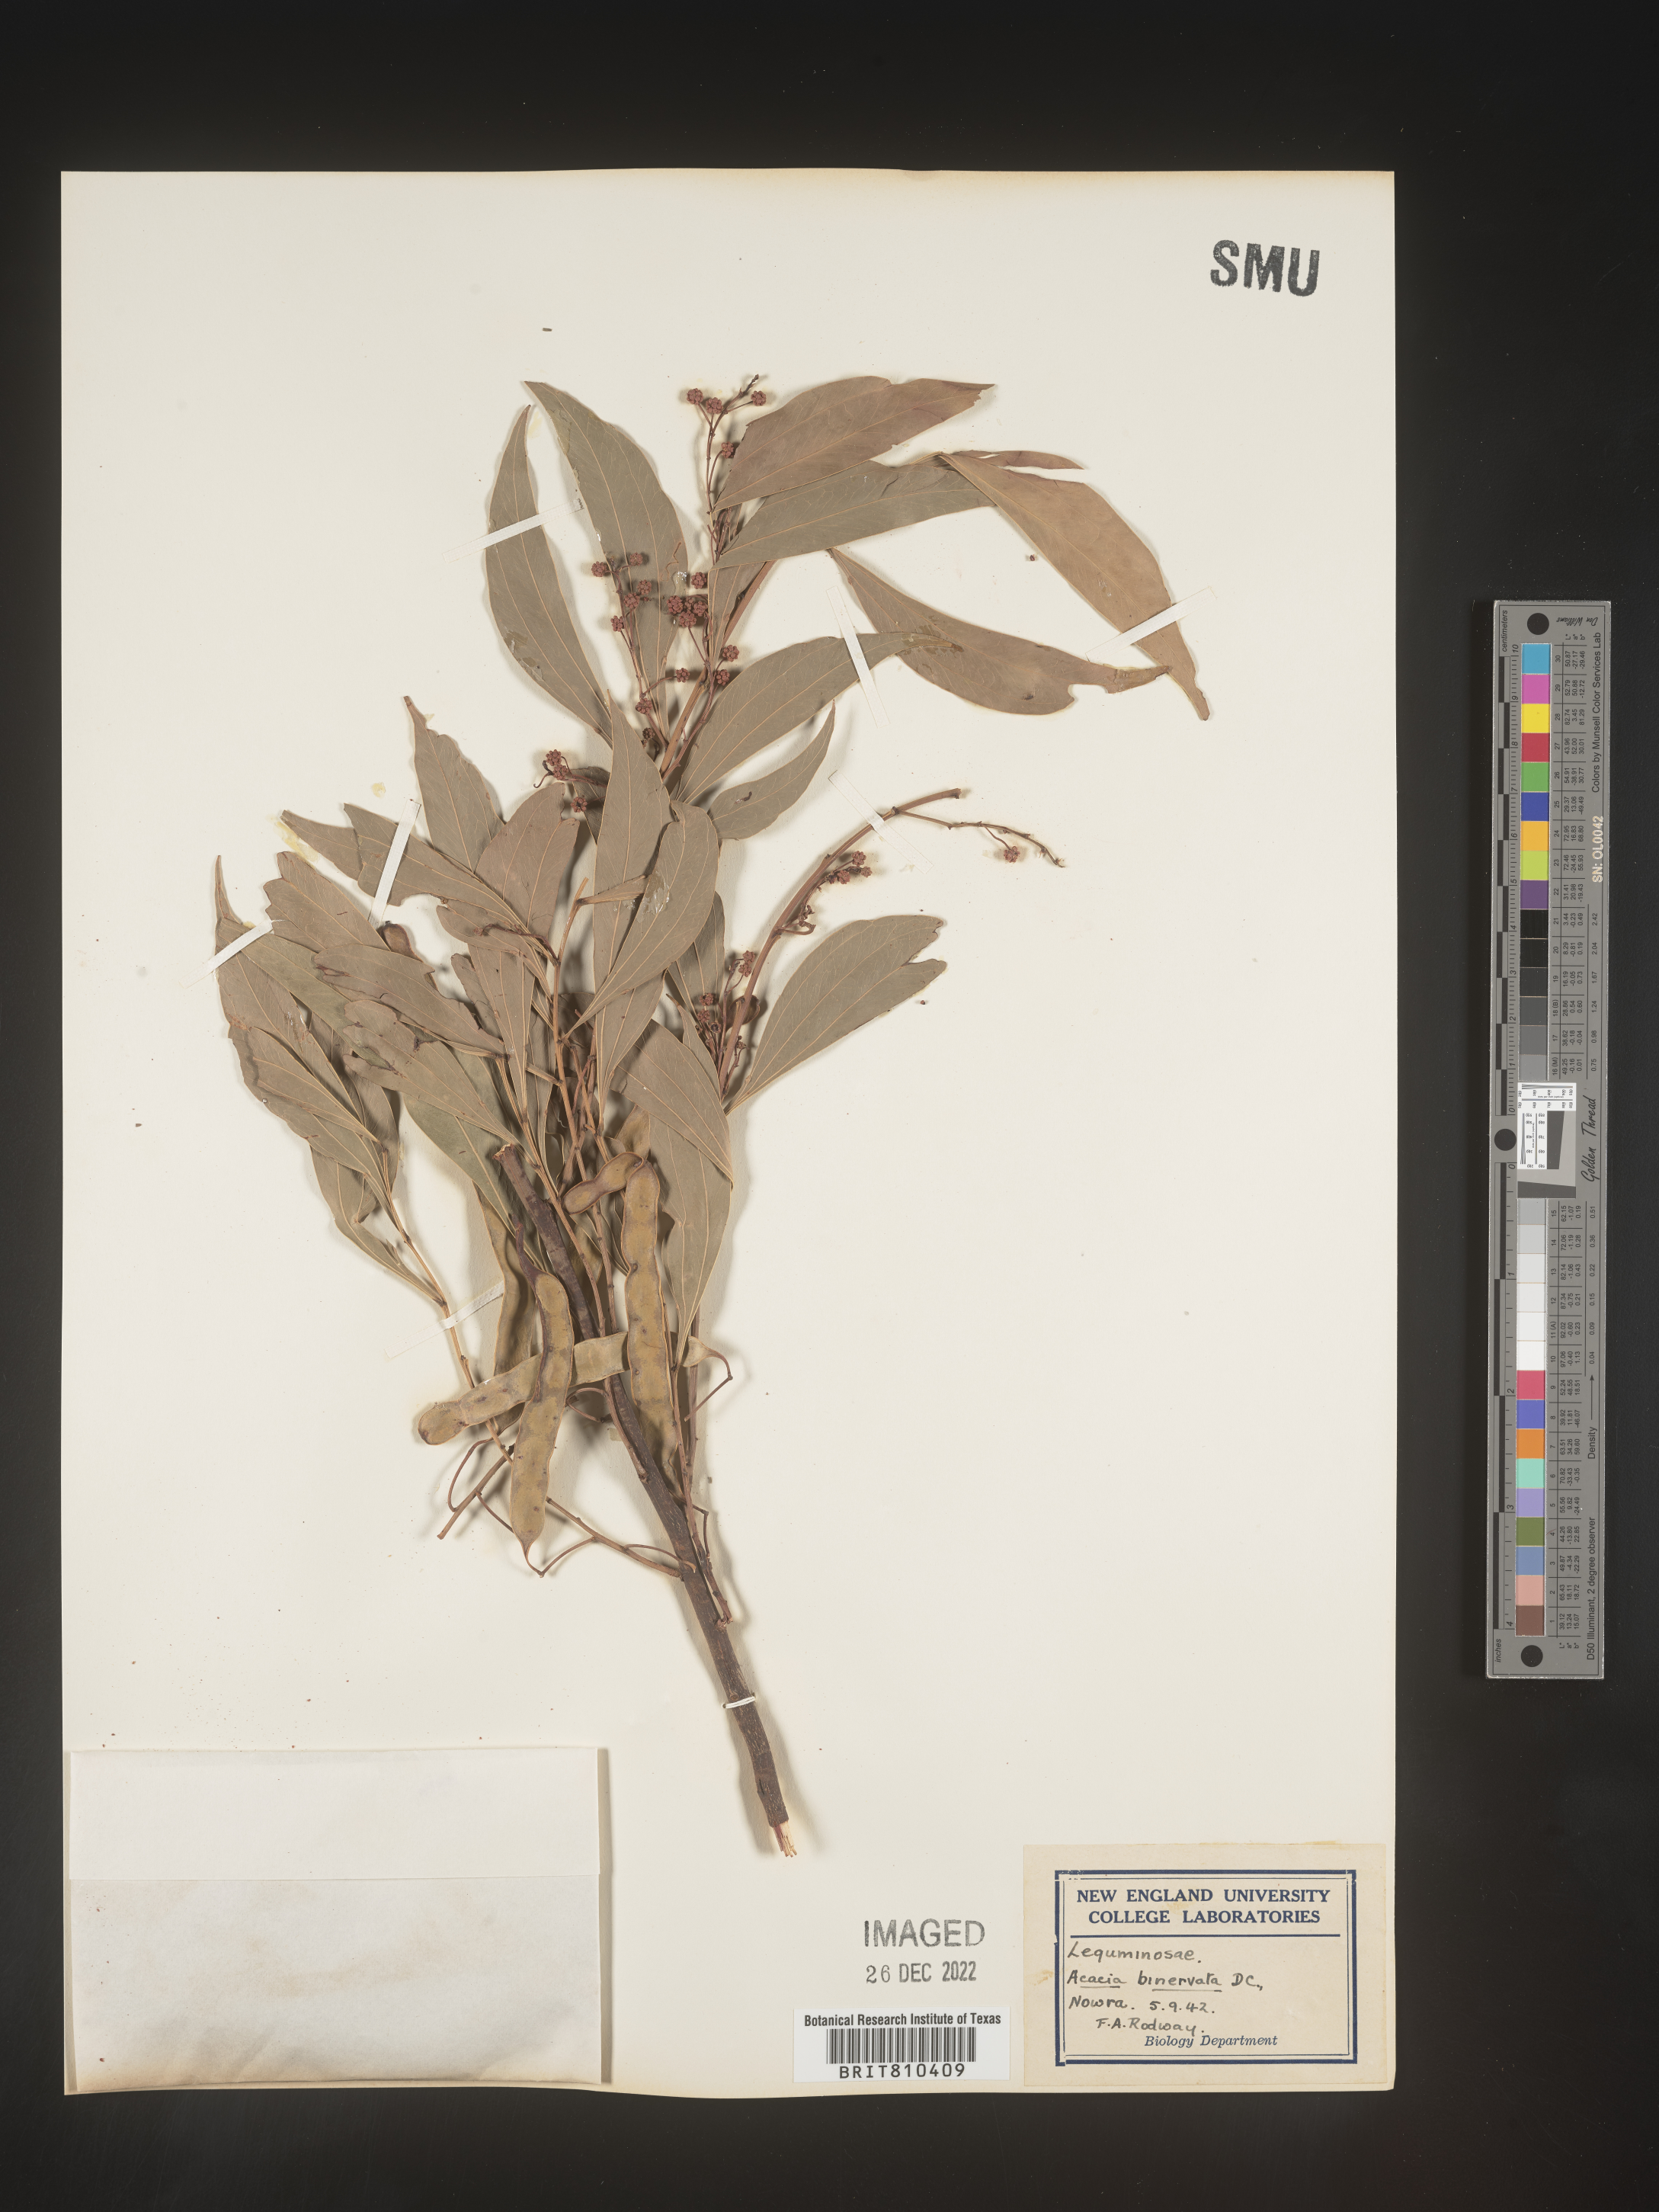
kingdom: Plantae
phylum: Tracheophyta
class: Magnoliopsida
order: Fabales
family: Fabaceae
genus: Acacia
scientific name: Acacia
